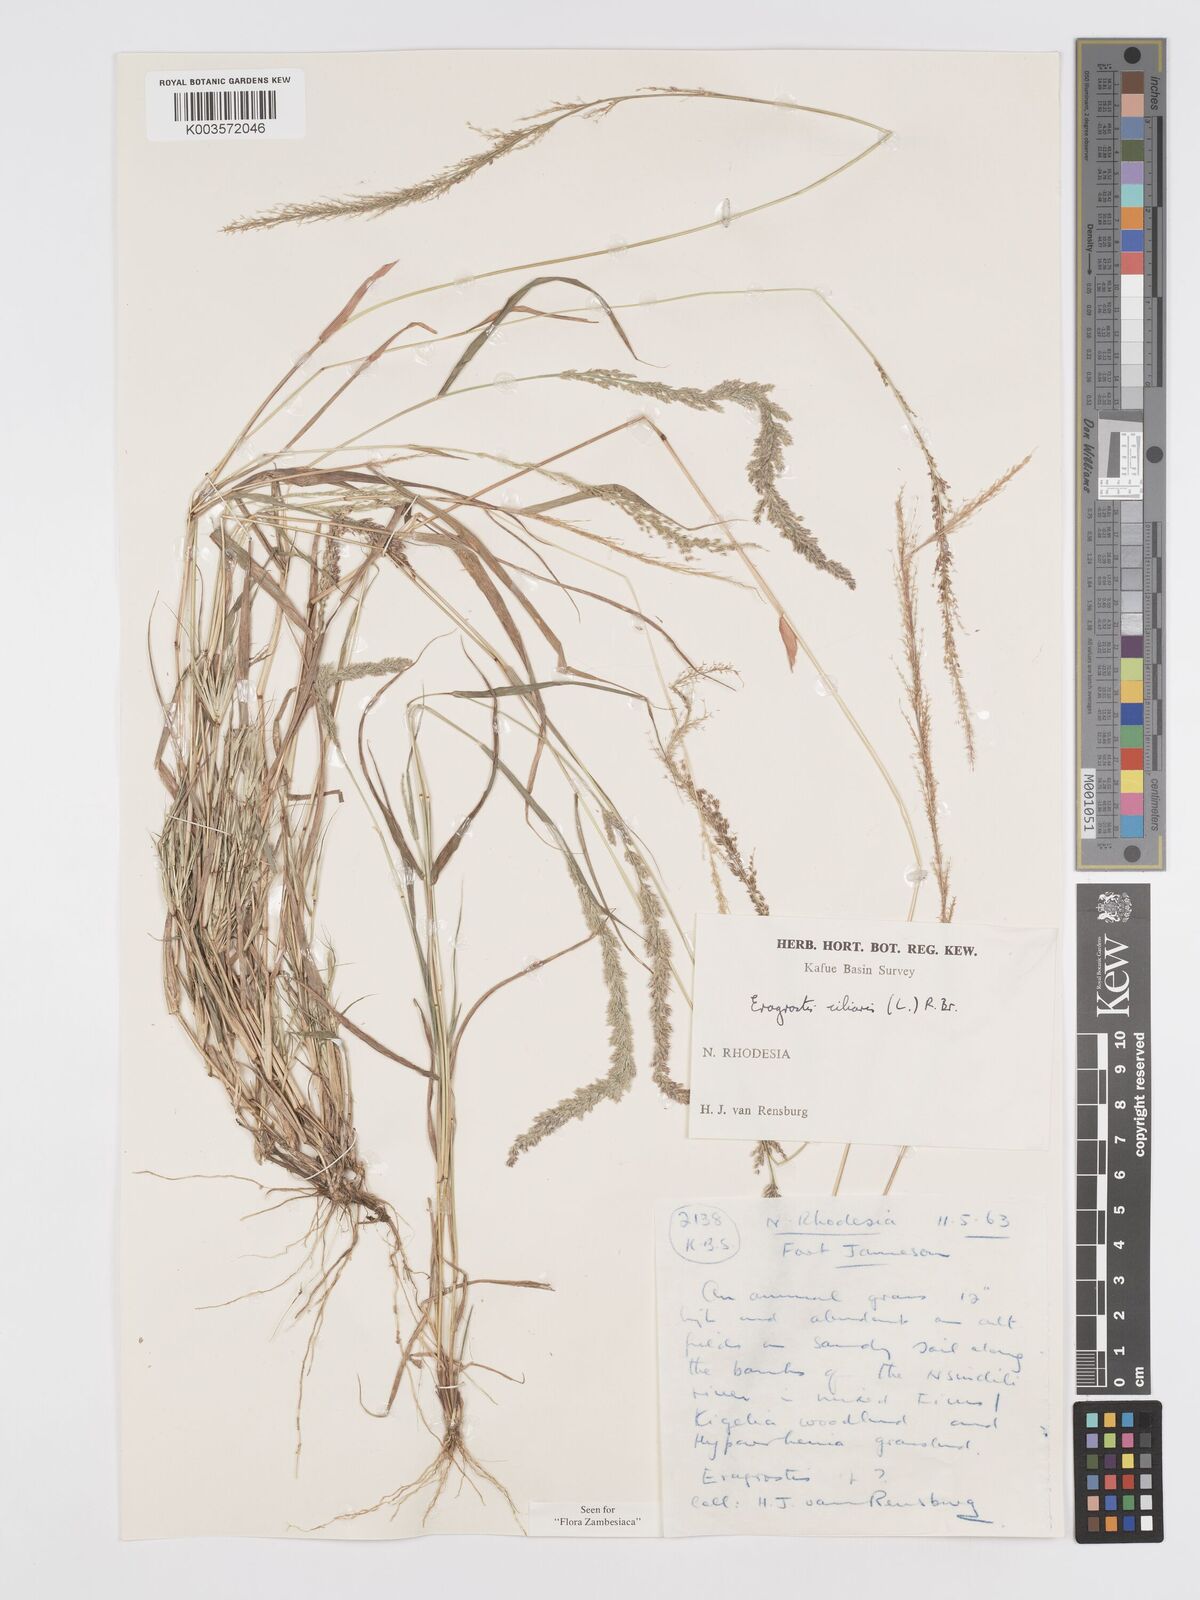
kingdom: Plantae
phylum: Tracheophyta
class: Liliopsida
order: Poales
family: Poaceae
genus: Eragrostis
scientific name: Eragrostis ciliaris
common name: Gophertail lovegrass
